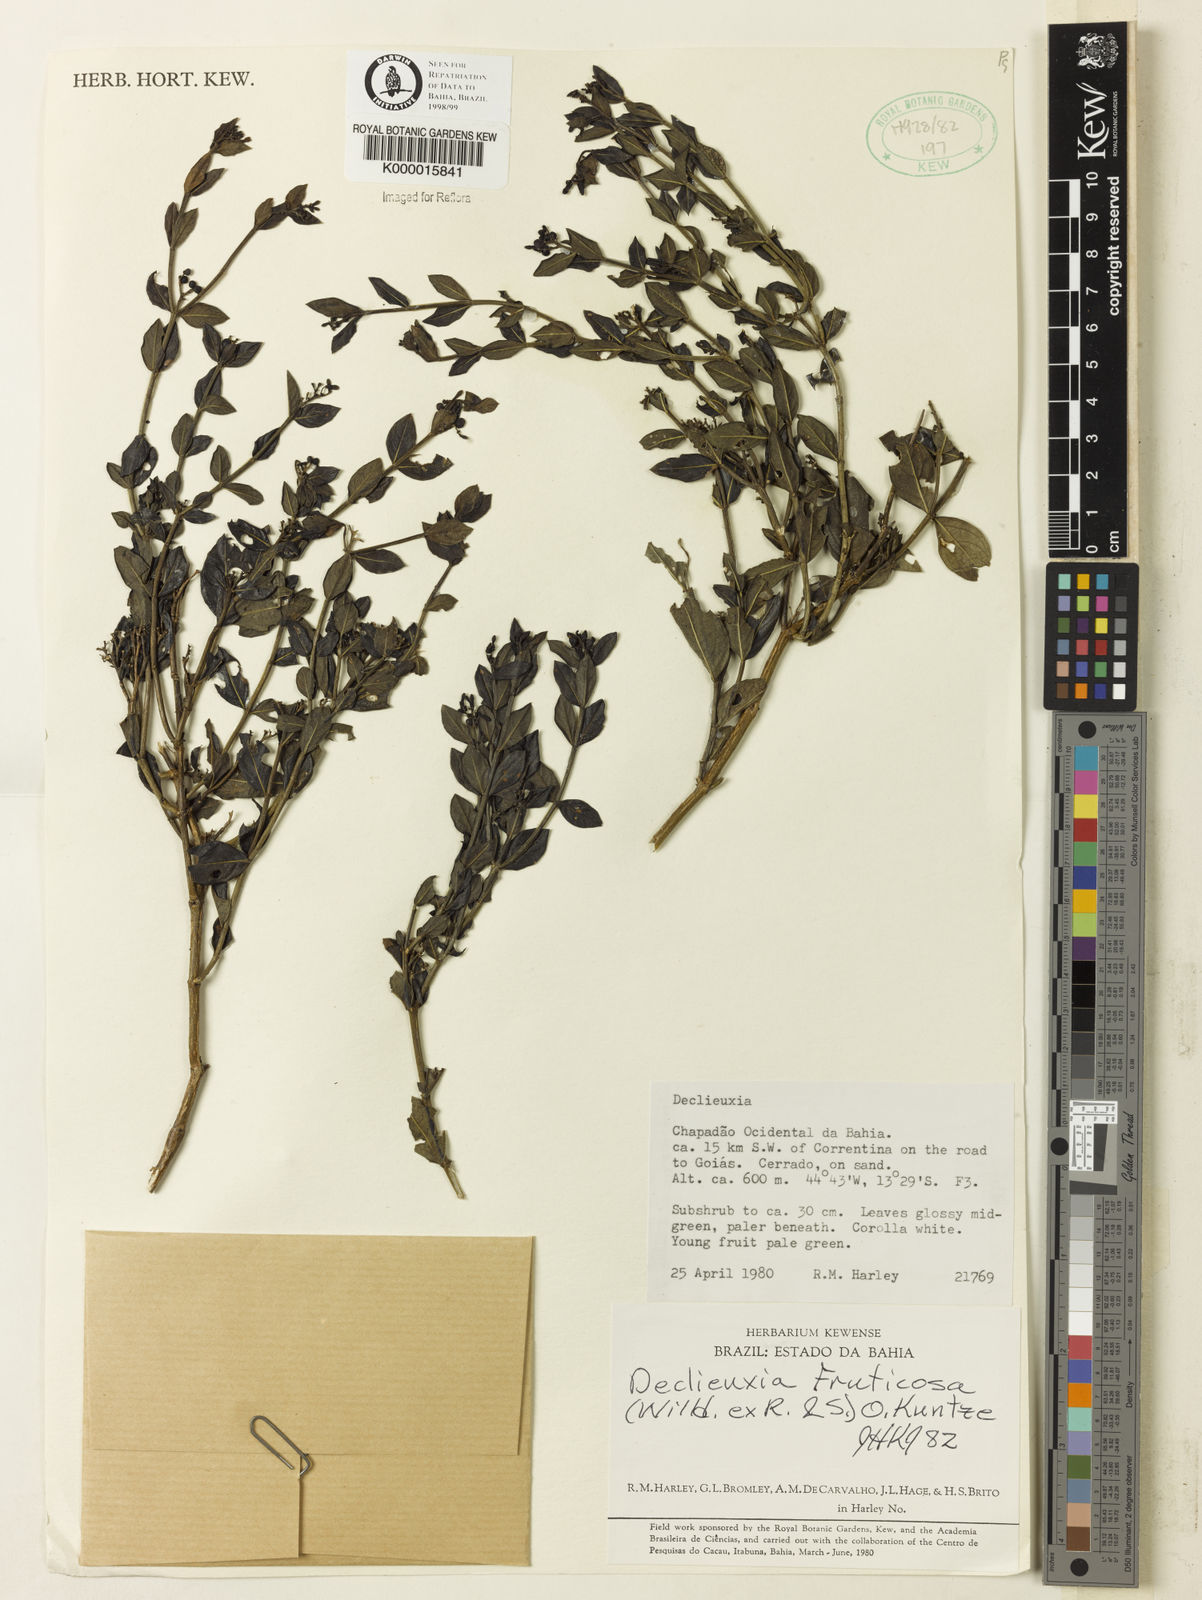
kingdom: Plantae
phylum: Tracheophyta
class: Magnoliopsida
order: Gentianales
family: Rubiaceae
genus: Declieuxia
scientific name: Declieuxia fruticosa
